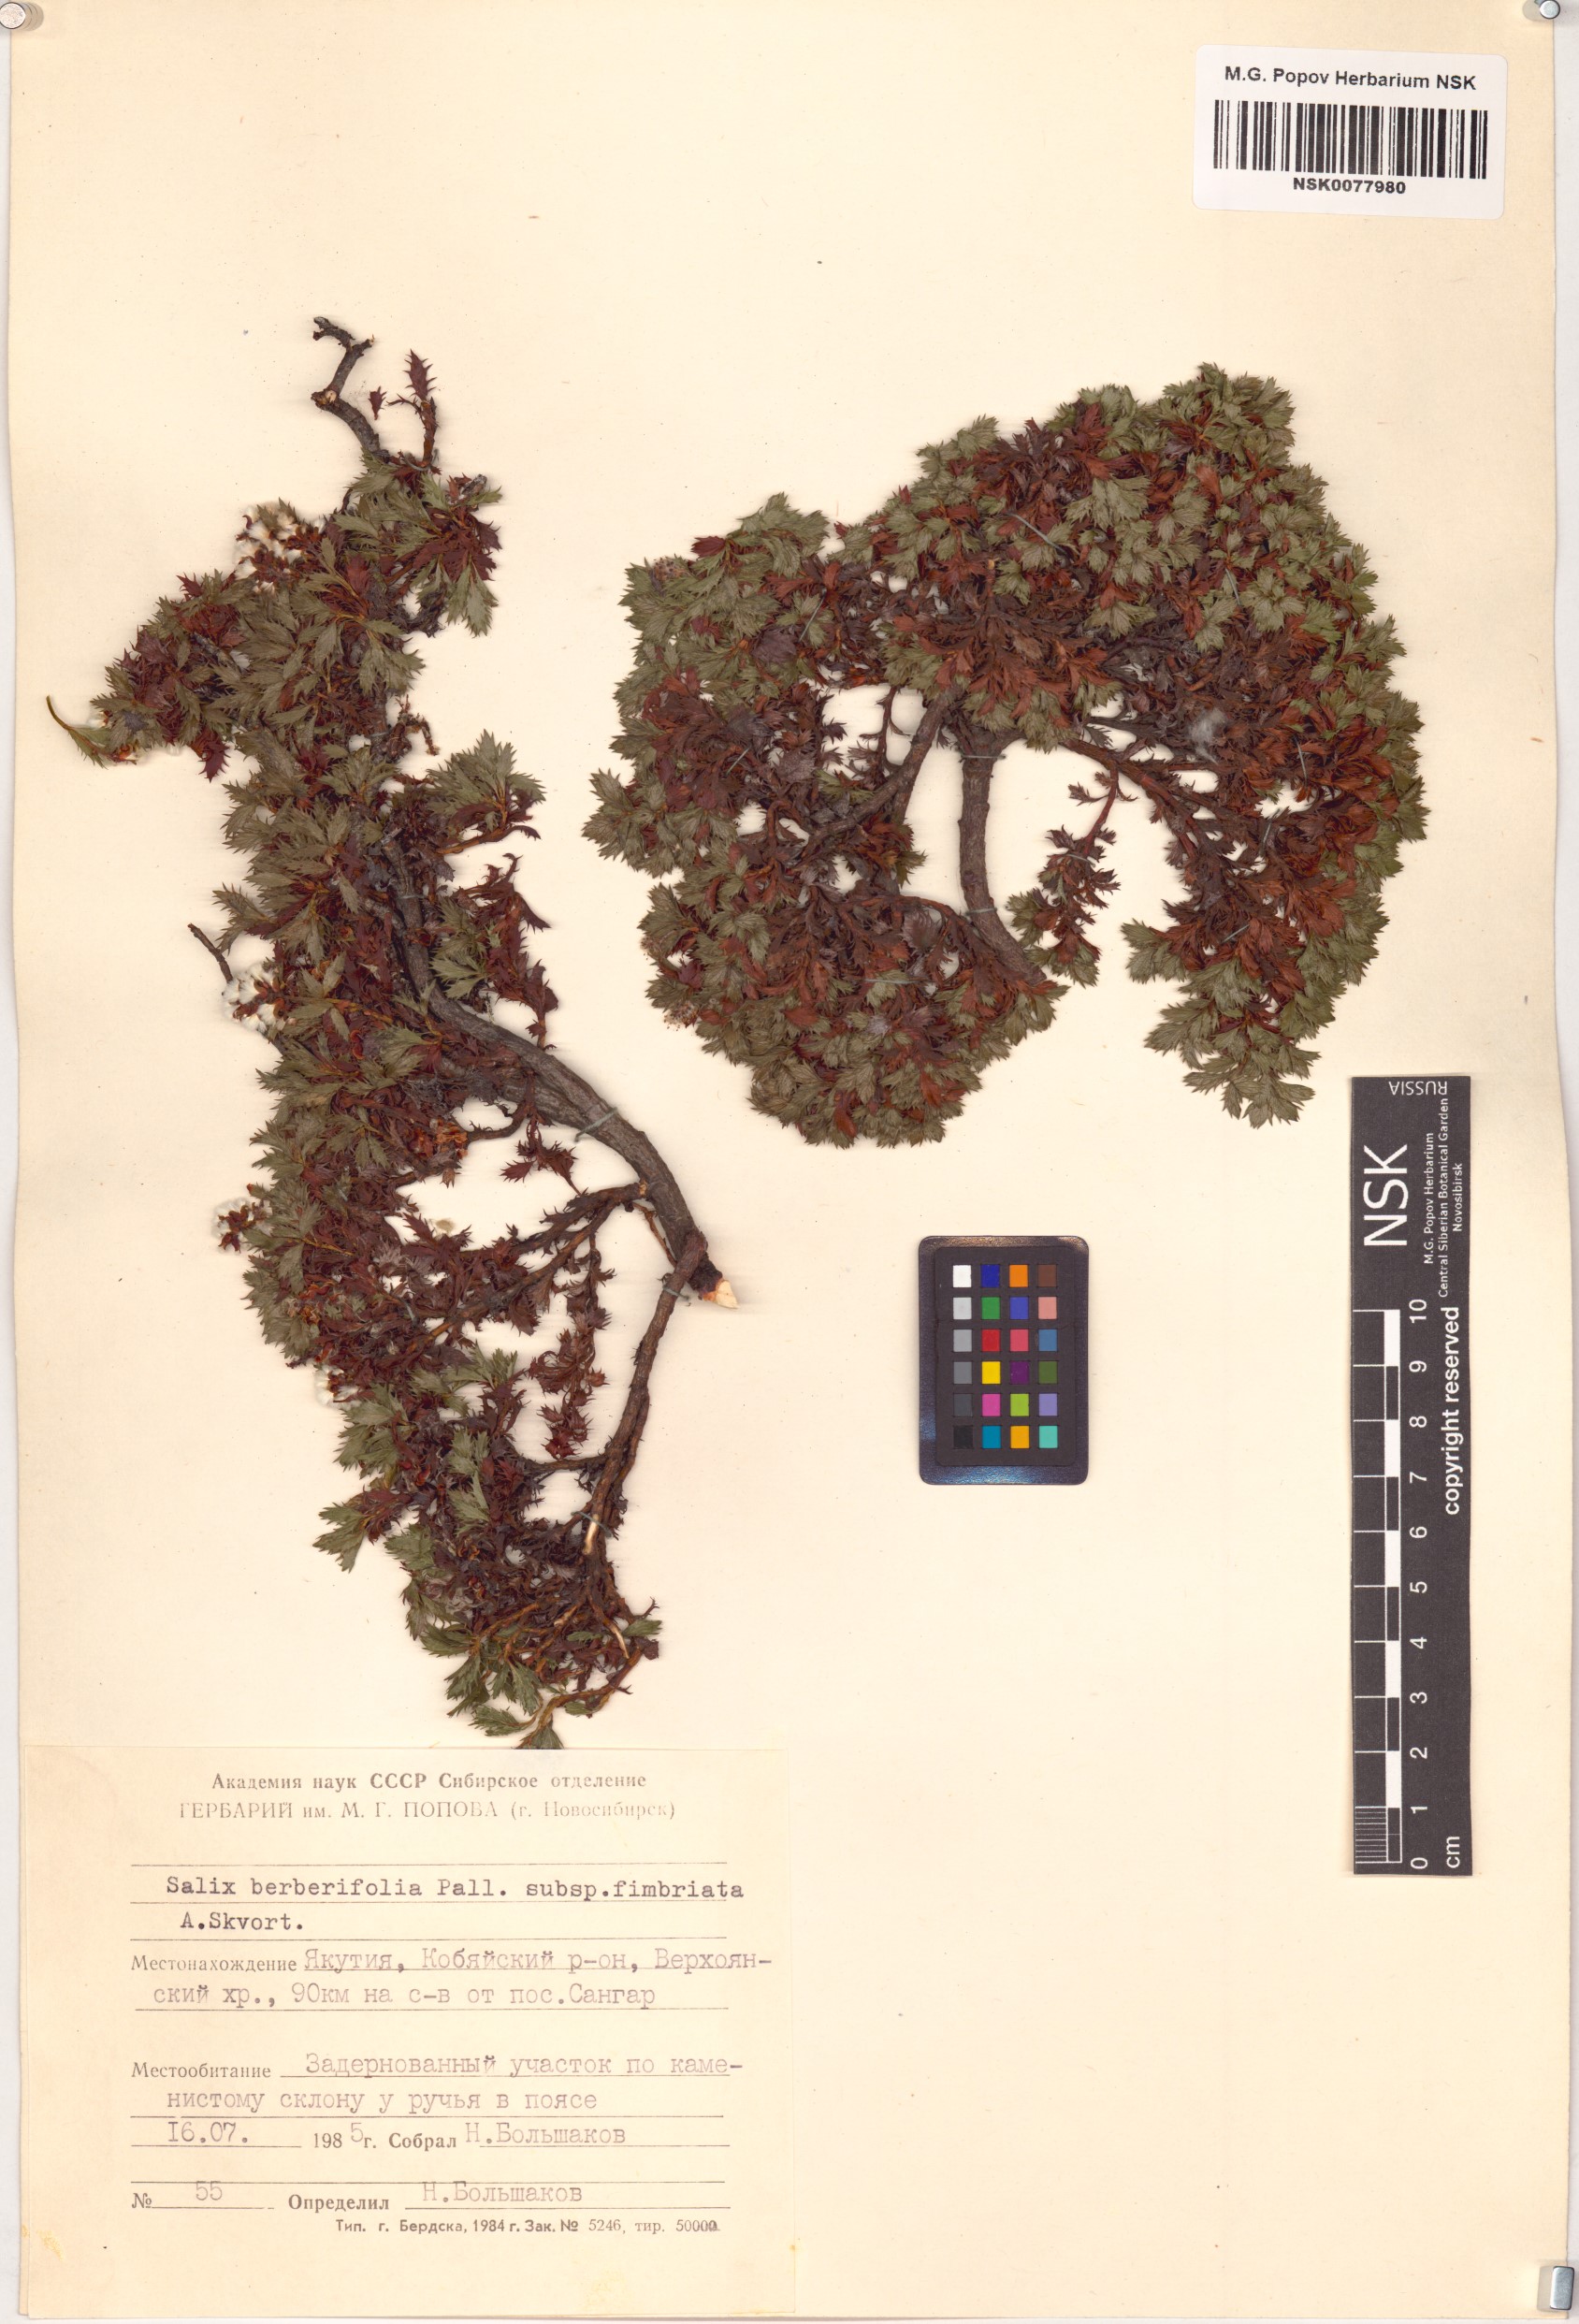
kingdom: Plantae
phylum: Tracheophyta
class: Magnoliopsida
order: Malpighiales
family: Salicaceae
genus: Salix
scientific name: Salix berberifolia
